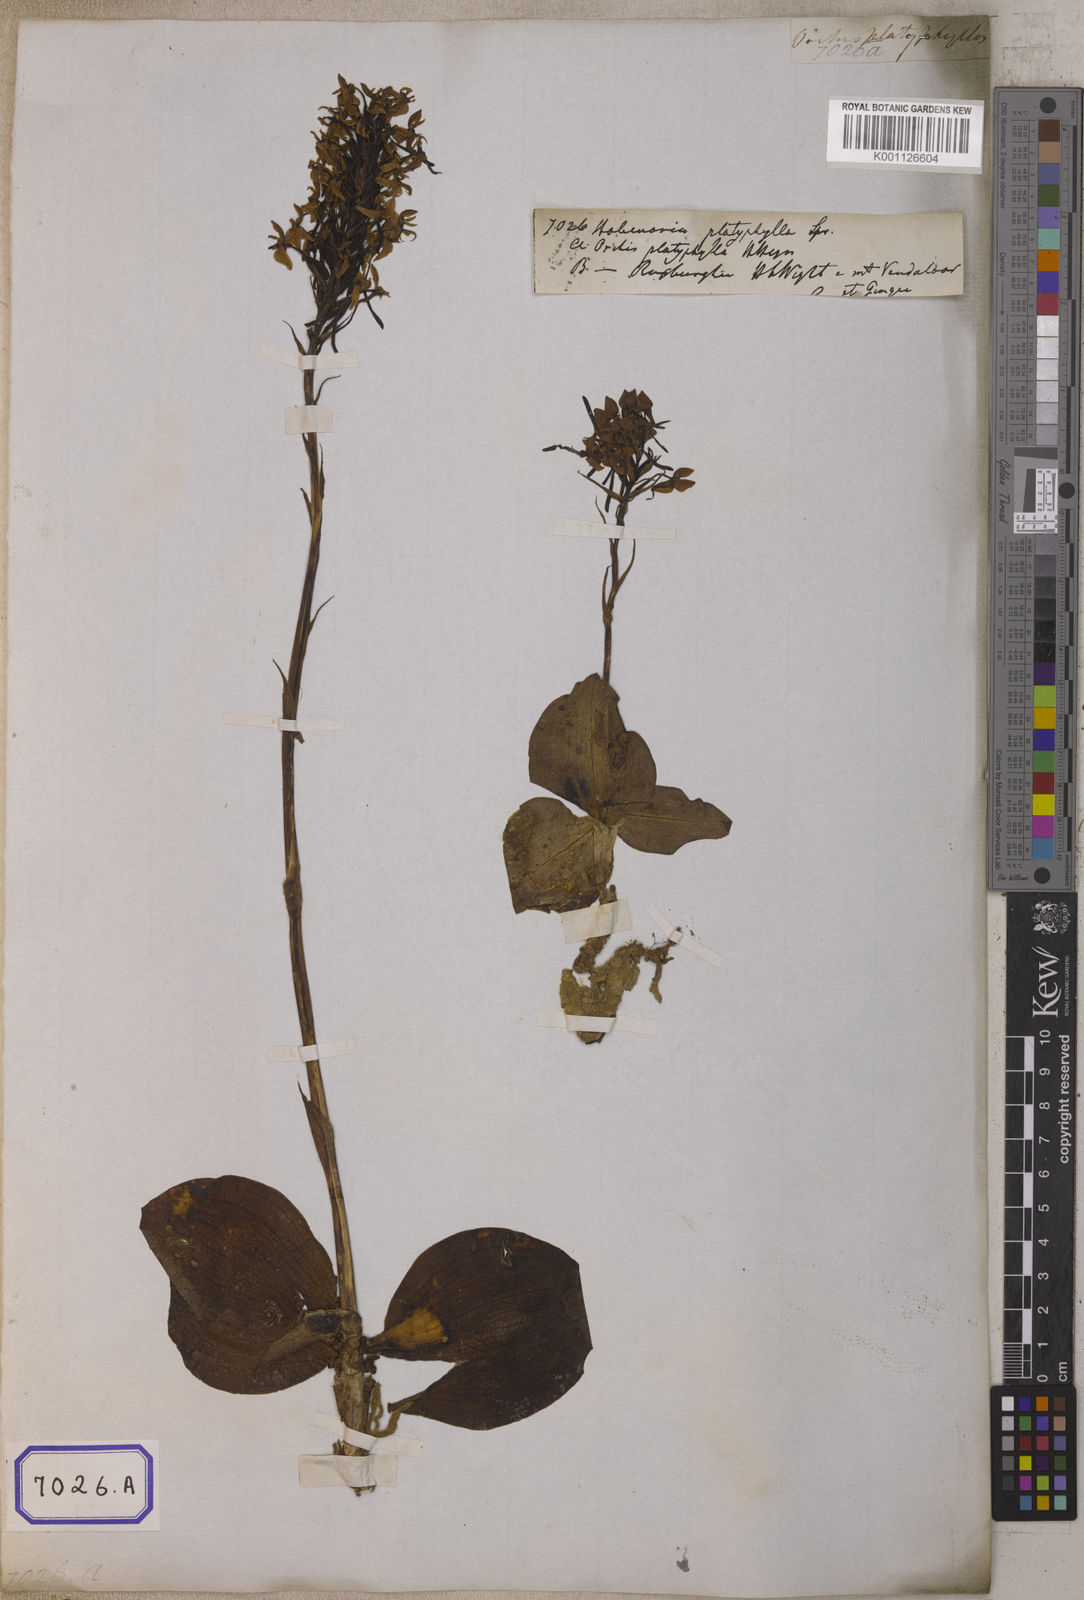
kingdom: Plantae
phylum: Tracheophyta
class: Liliopsida
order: Asparagales
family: Orchidaceae
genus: Habenaria
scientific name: Habenaria roxburghii
